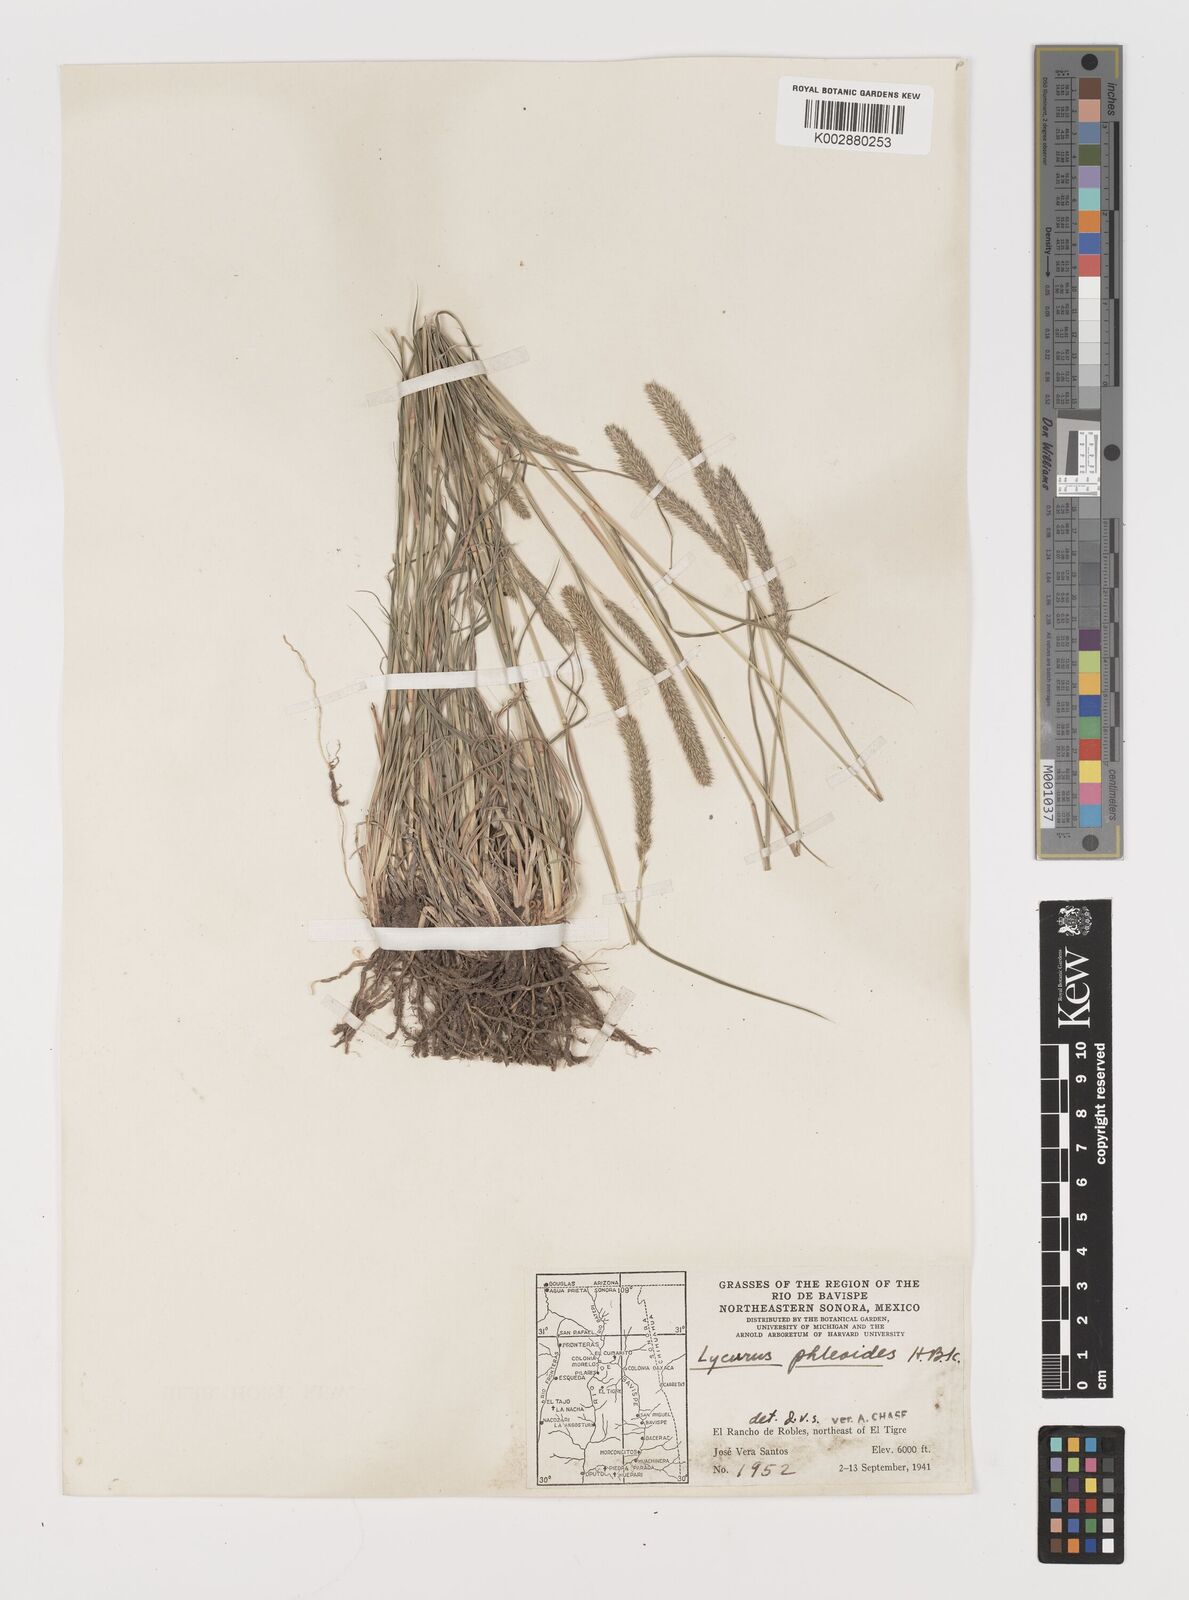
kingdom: Plantae
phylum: Tracheophyta
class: Liliopsida
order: Poales
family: Poaceae
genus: Muhlenbergia
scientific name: Muhlenbergia alopecuroides
